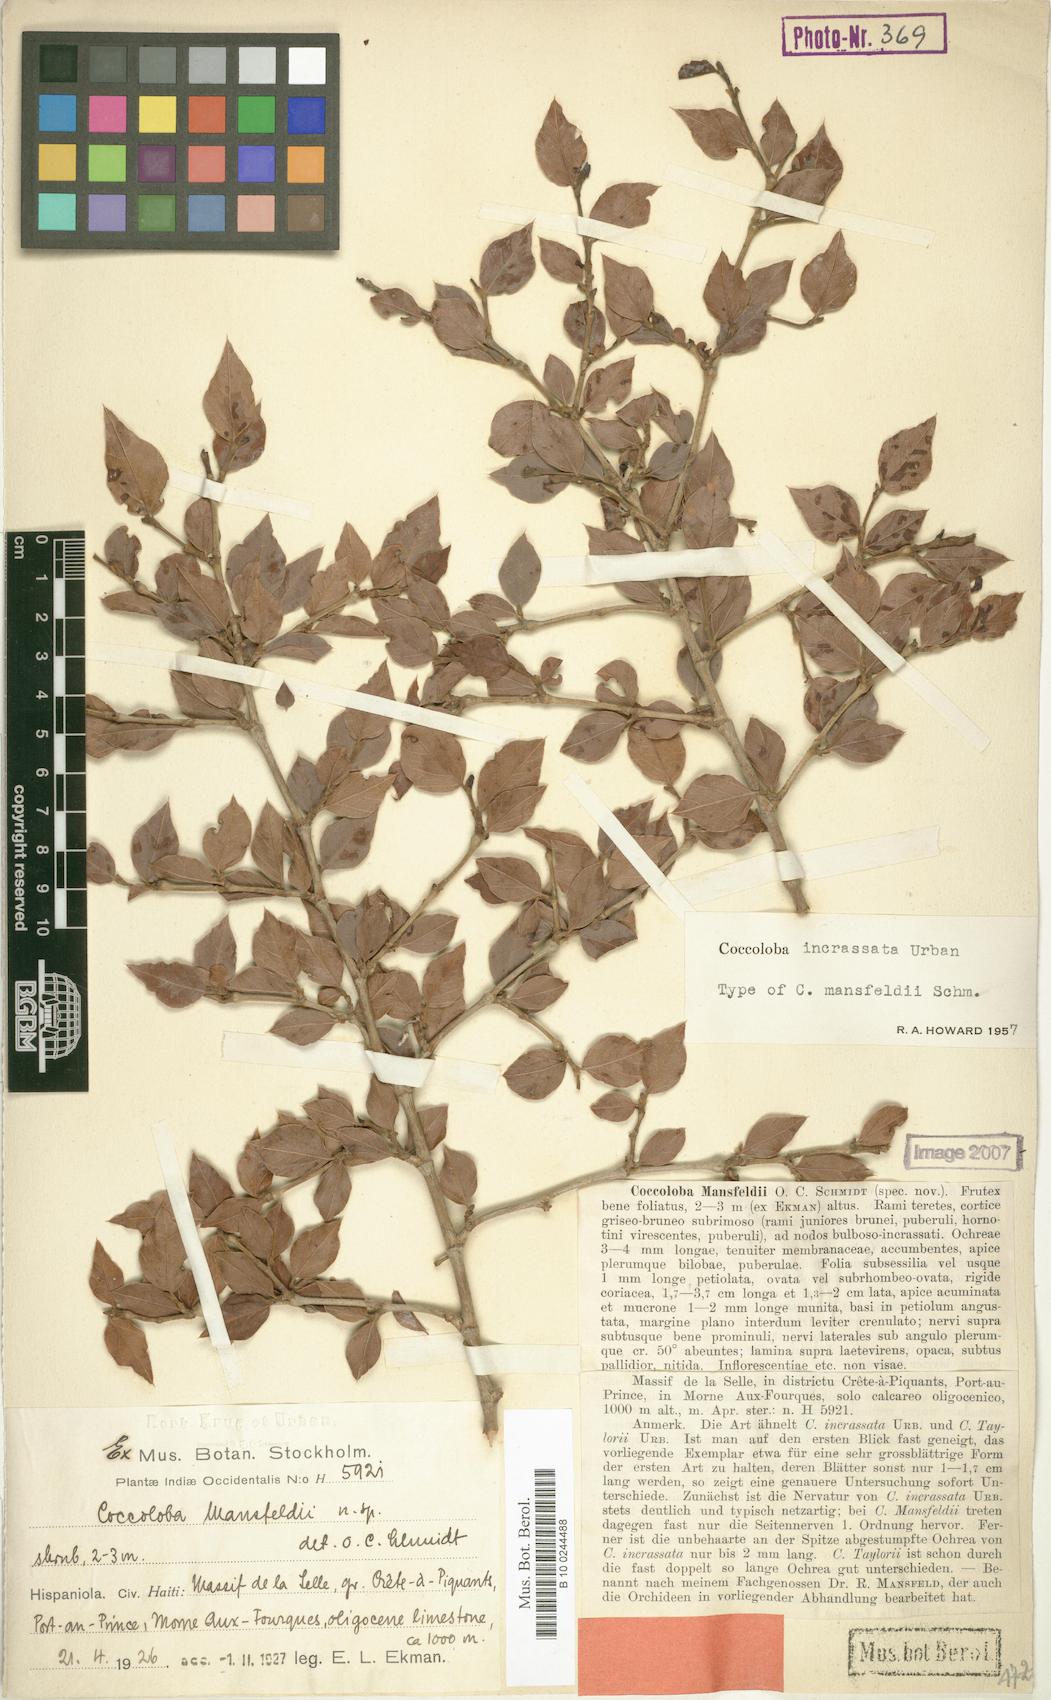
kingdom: Plantae
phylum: Tracheophyta
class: Magnoliopsida
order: Caryophyllales
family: Polygonaceae
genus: Coccoloba
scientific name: Coccoloba incrassata
